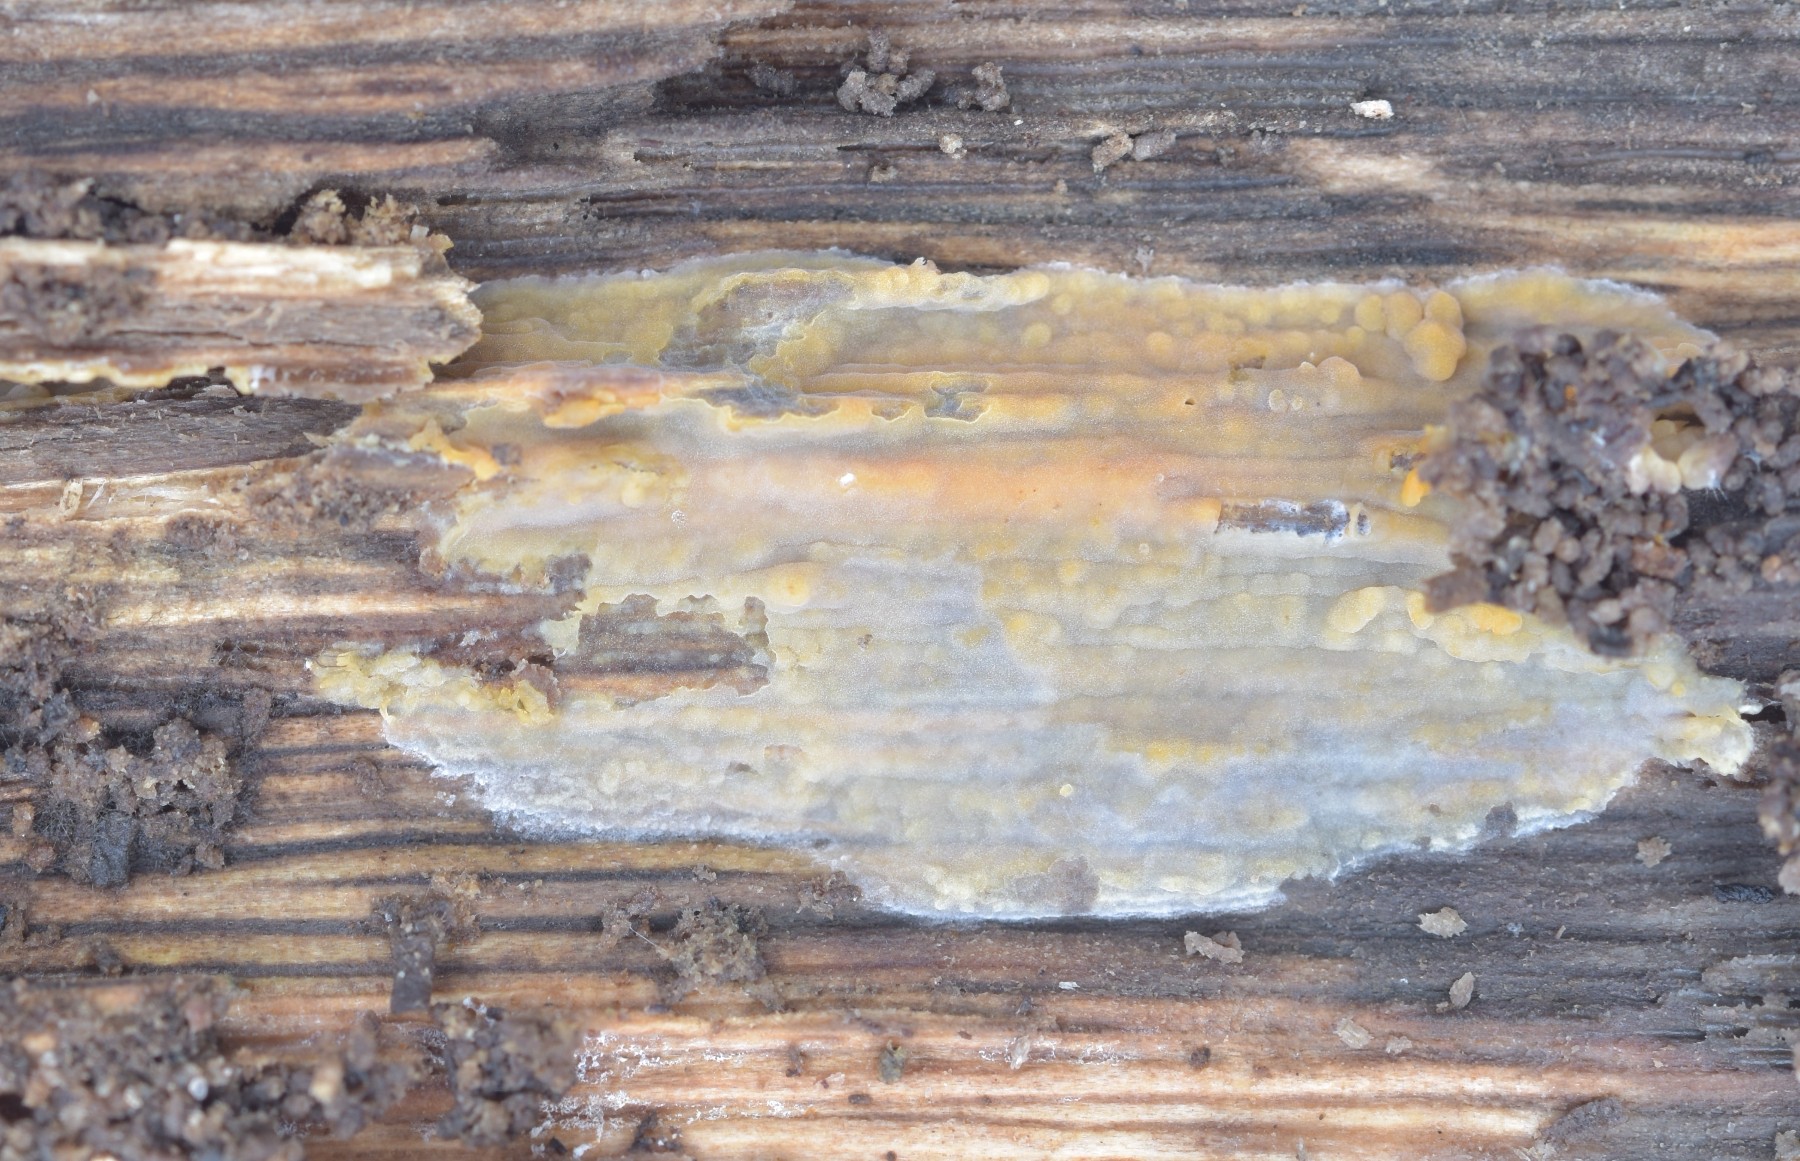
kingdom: Fungi
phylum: Basidiomycota
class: Agaricomycetes
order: Russulales
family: Peniophoraceae
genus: Peniophora
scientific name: Peniophora incarnata
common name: laksefarvet voksskind
